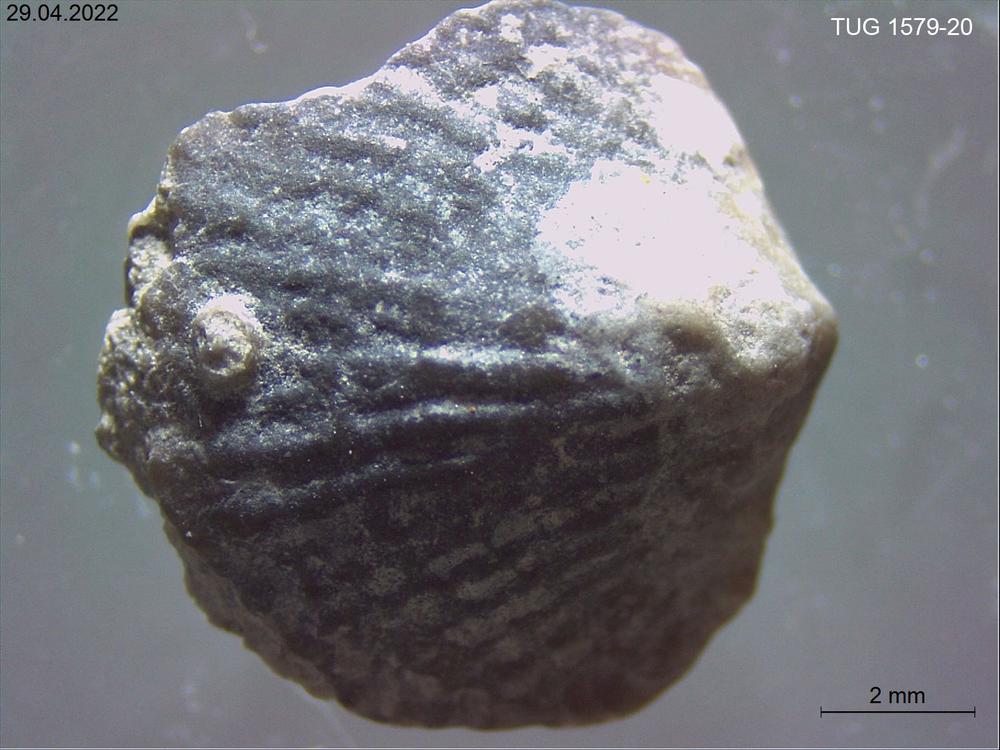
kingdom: Animalia
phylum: Brachiopoda
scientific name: Brachiopoda
